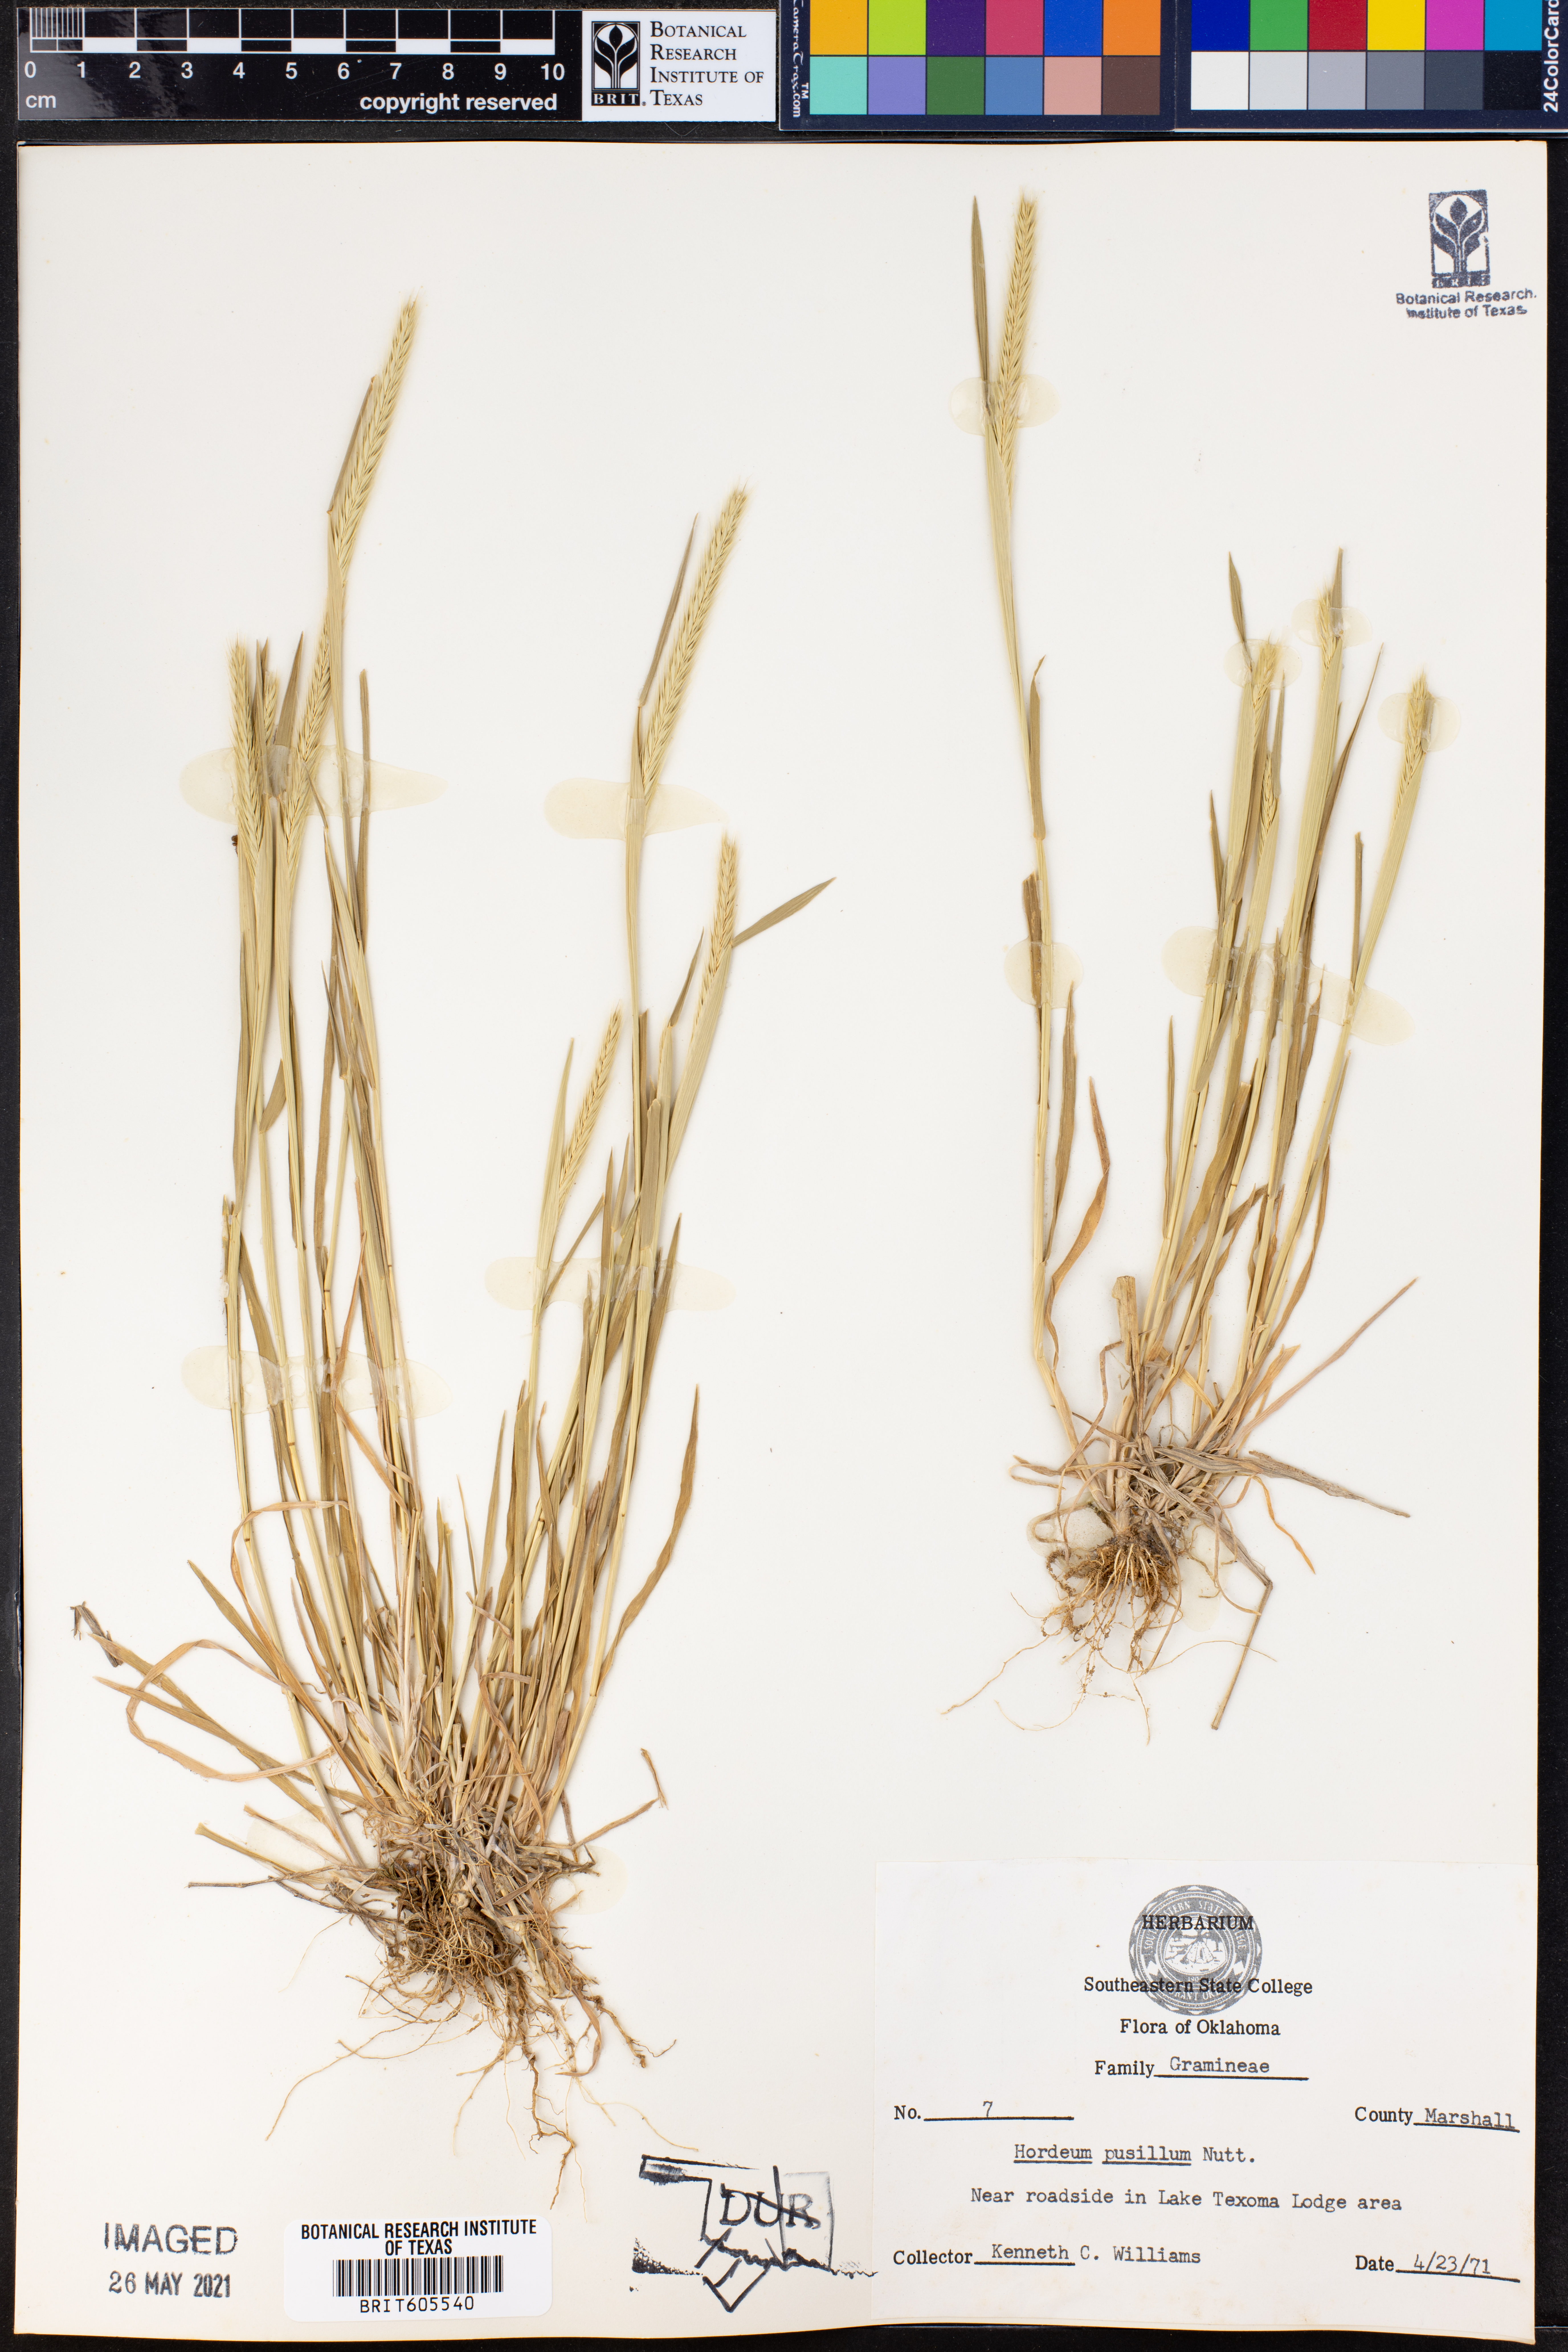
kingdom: Plantae
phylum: Tracheophyta
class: Liliopsida
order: Poales
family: Poaceae
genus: Hordeum
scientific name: Hordeum pusillum
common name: Little barley
